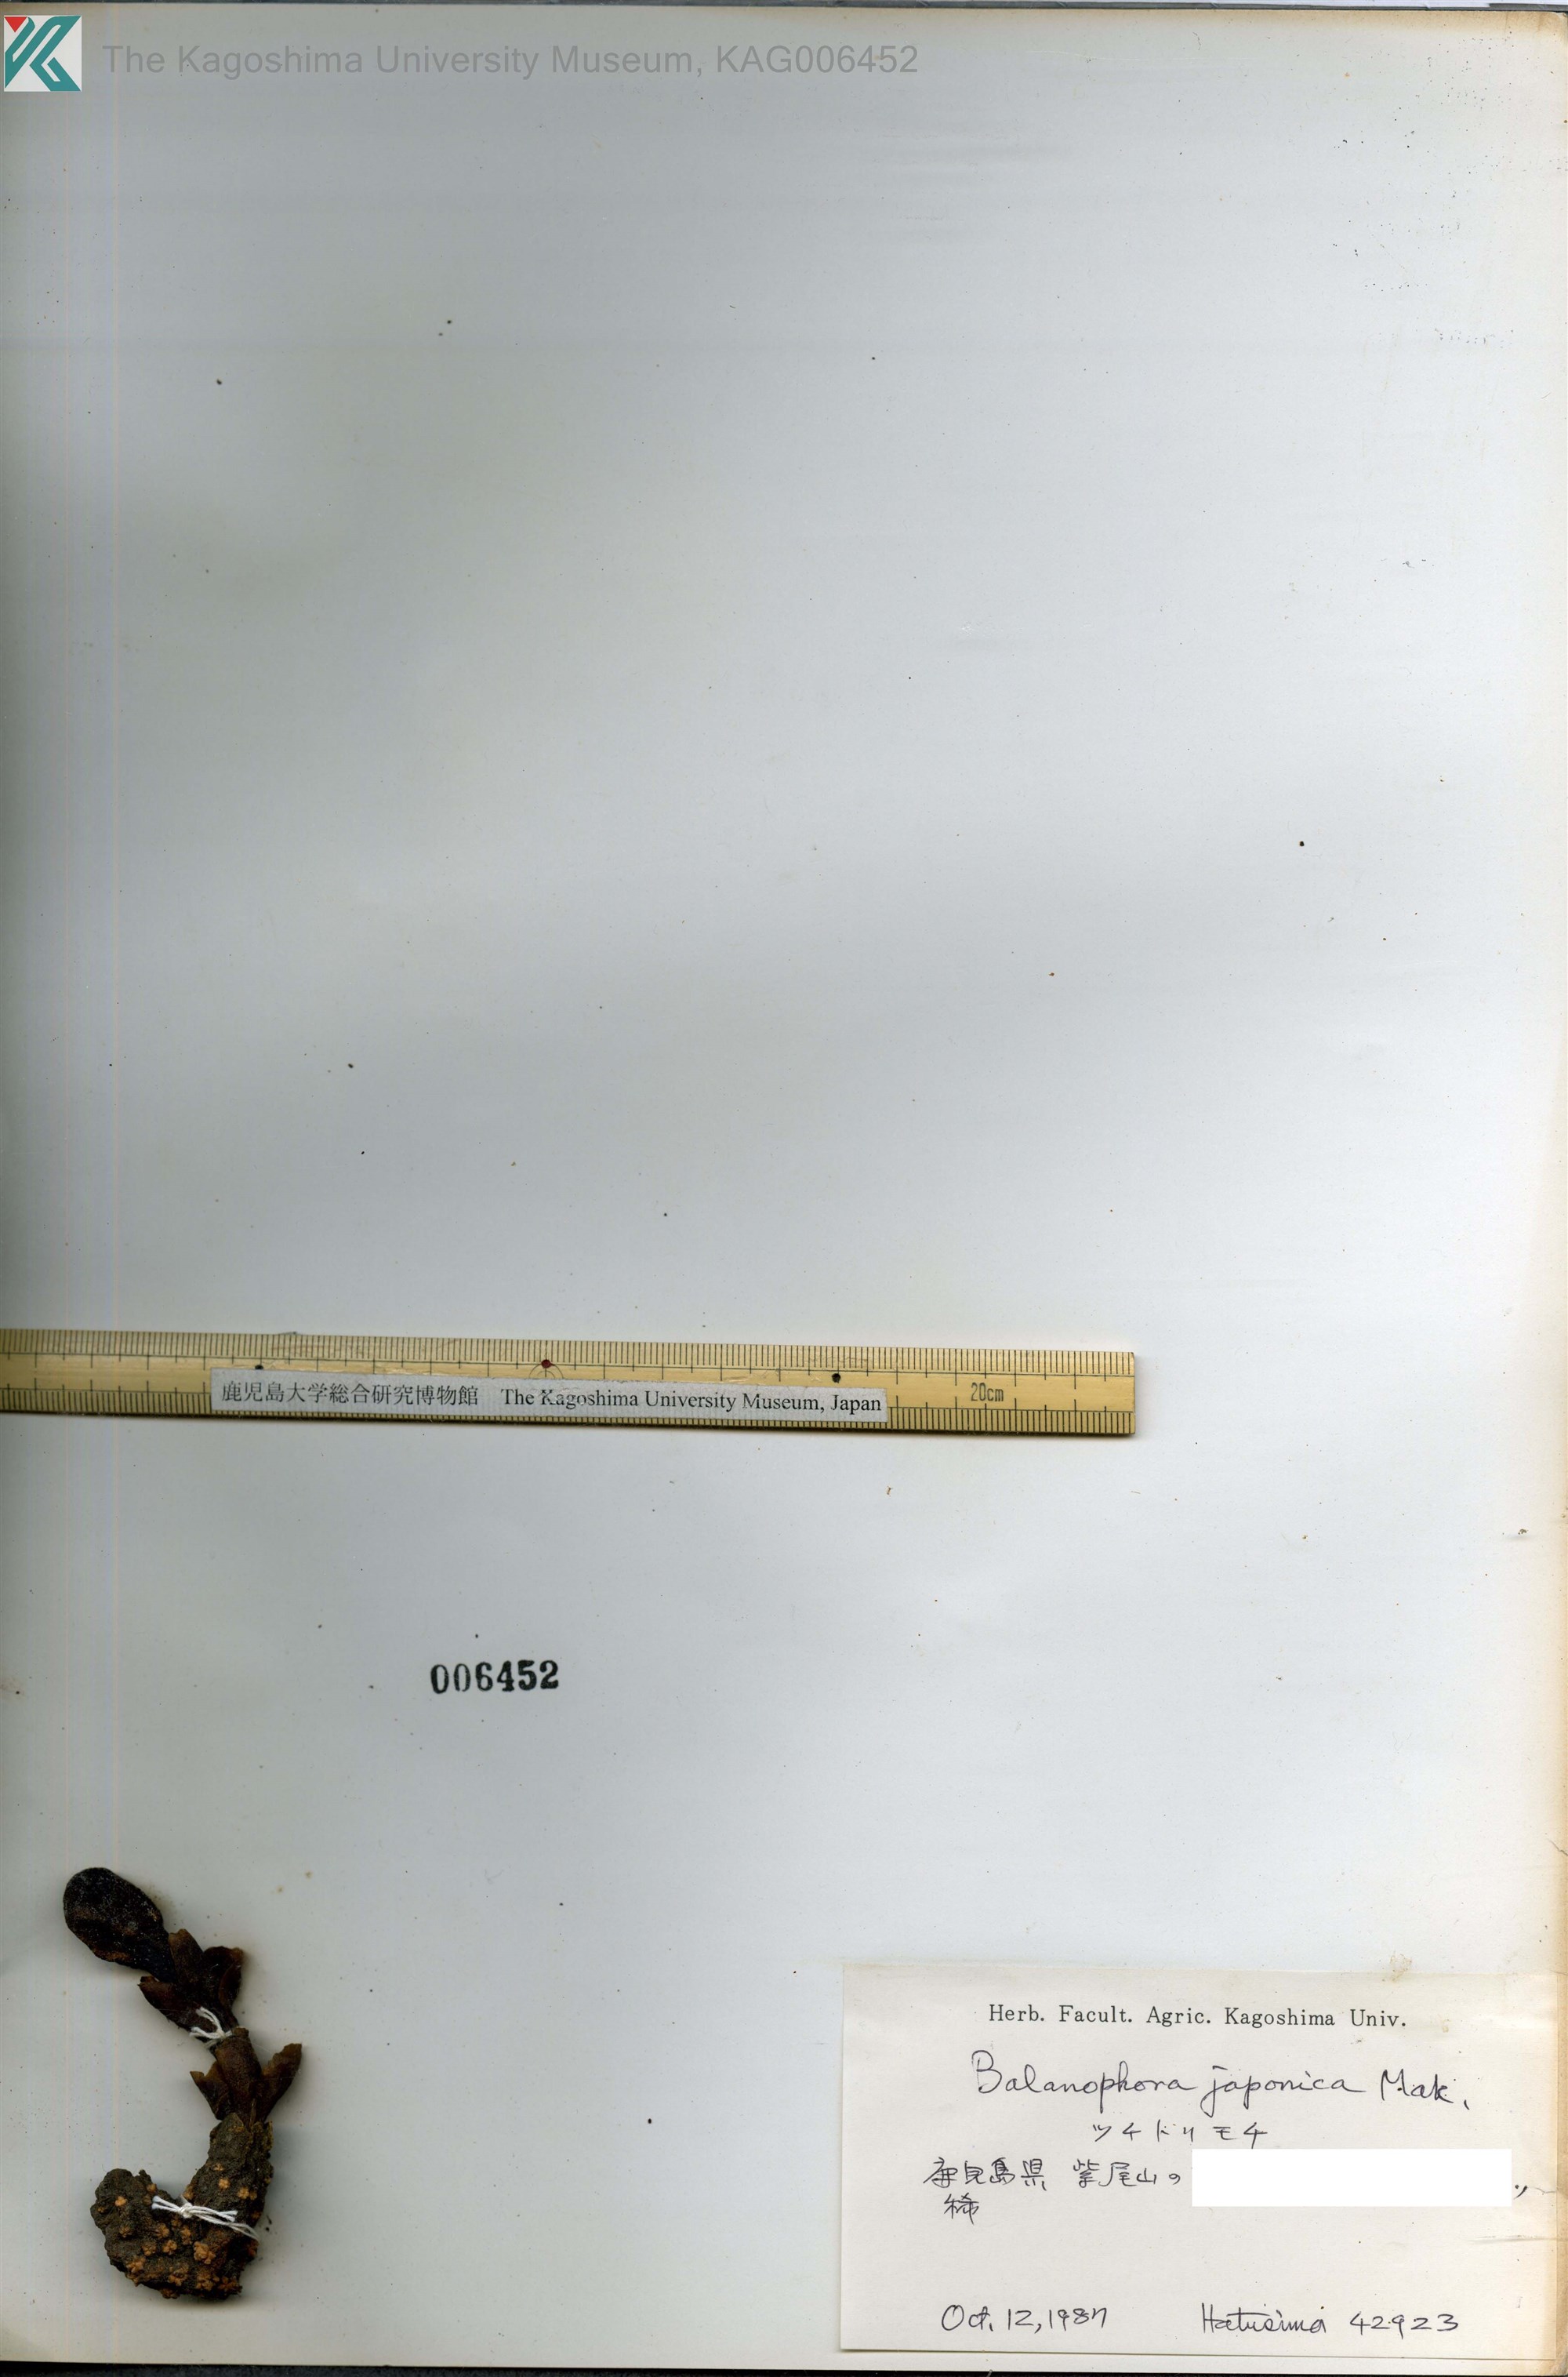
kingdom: Plantae
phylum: Tracheophyta
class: Magnoliopsida
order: Santalales
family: Balanophoraceae
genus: Balanophora
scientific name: Balanophora japonica
